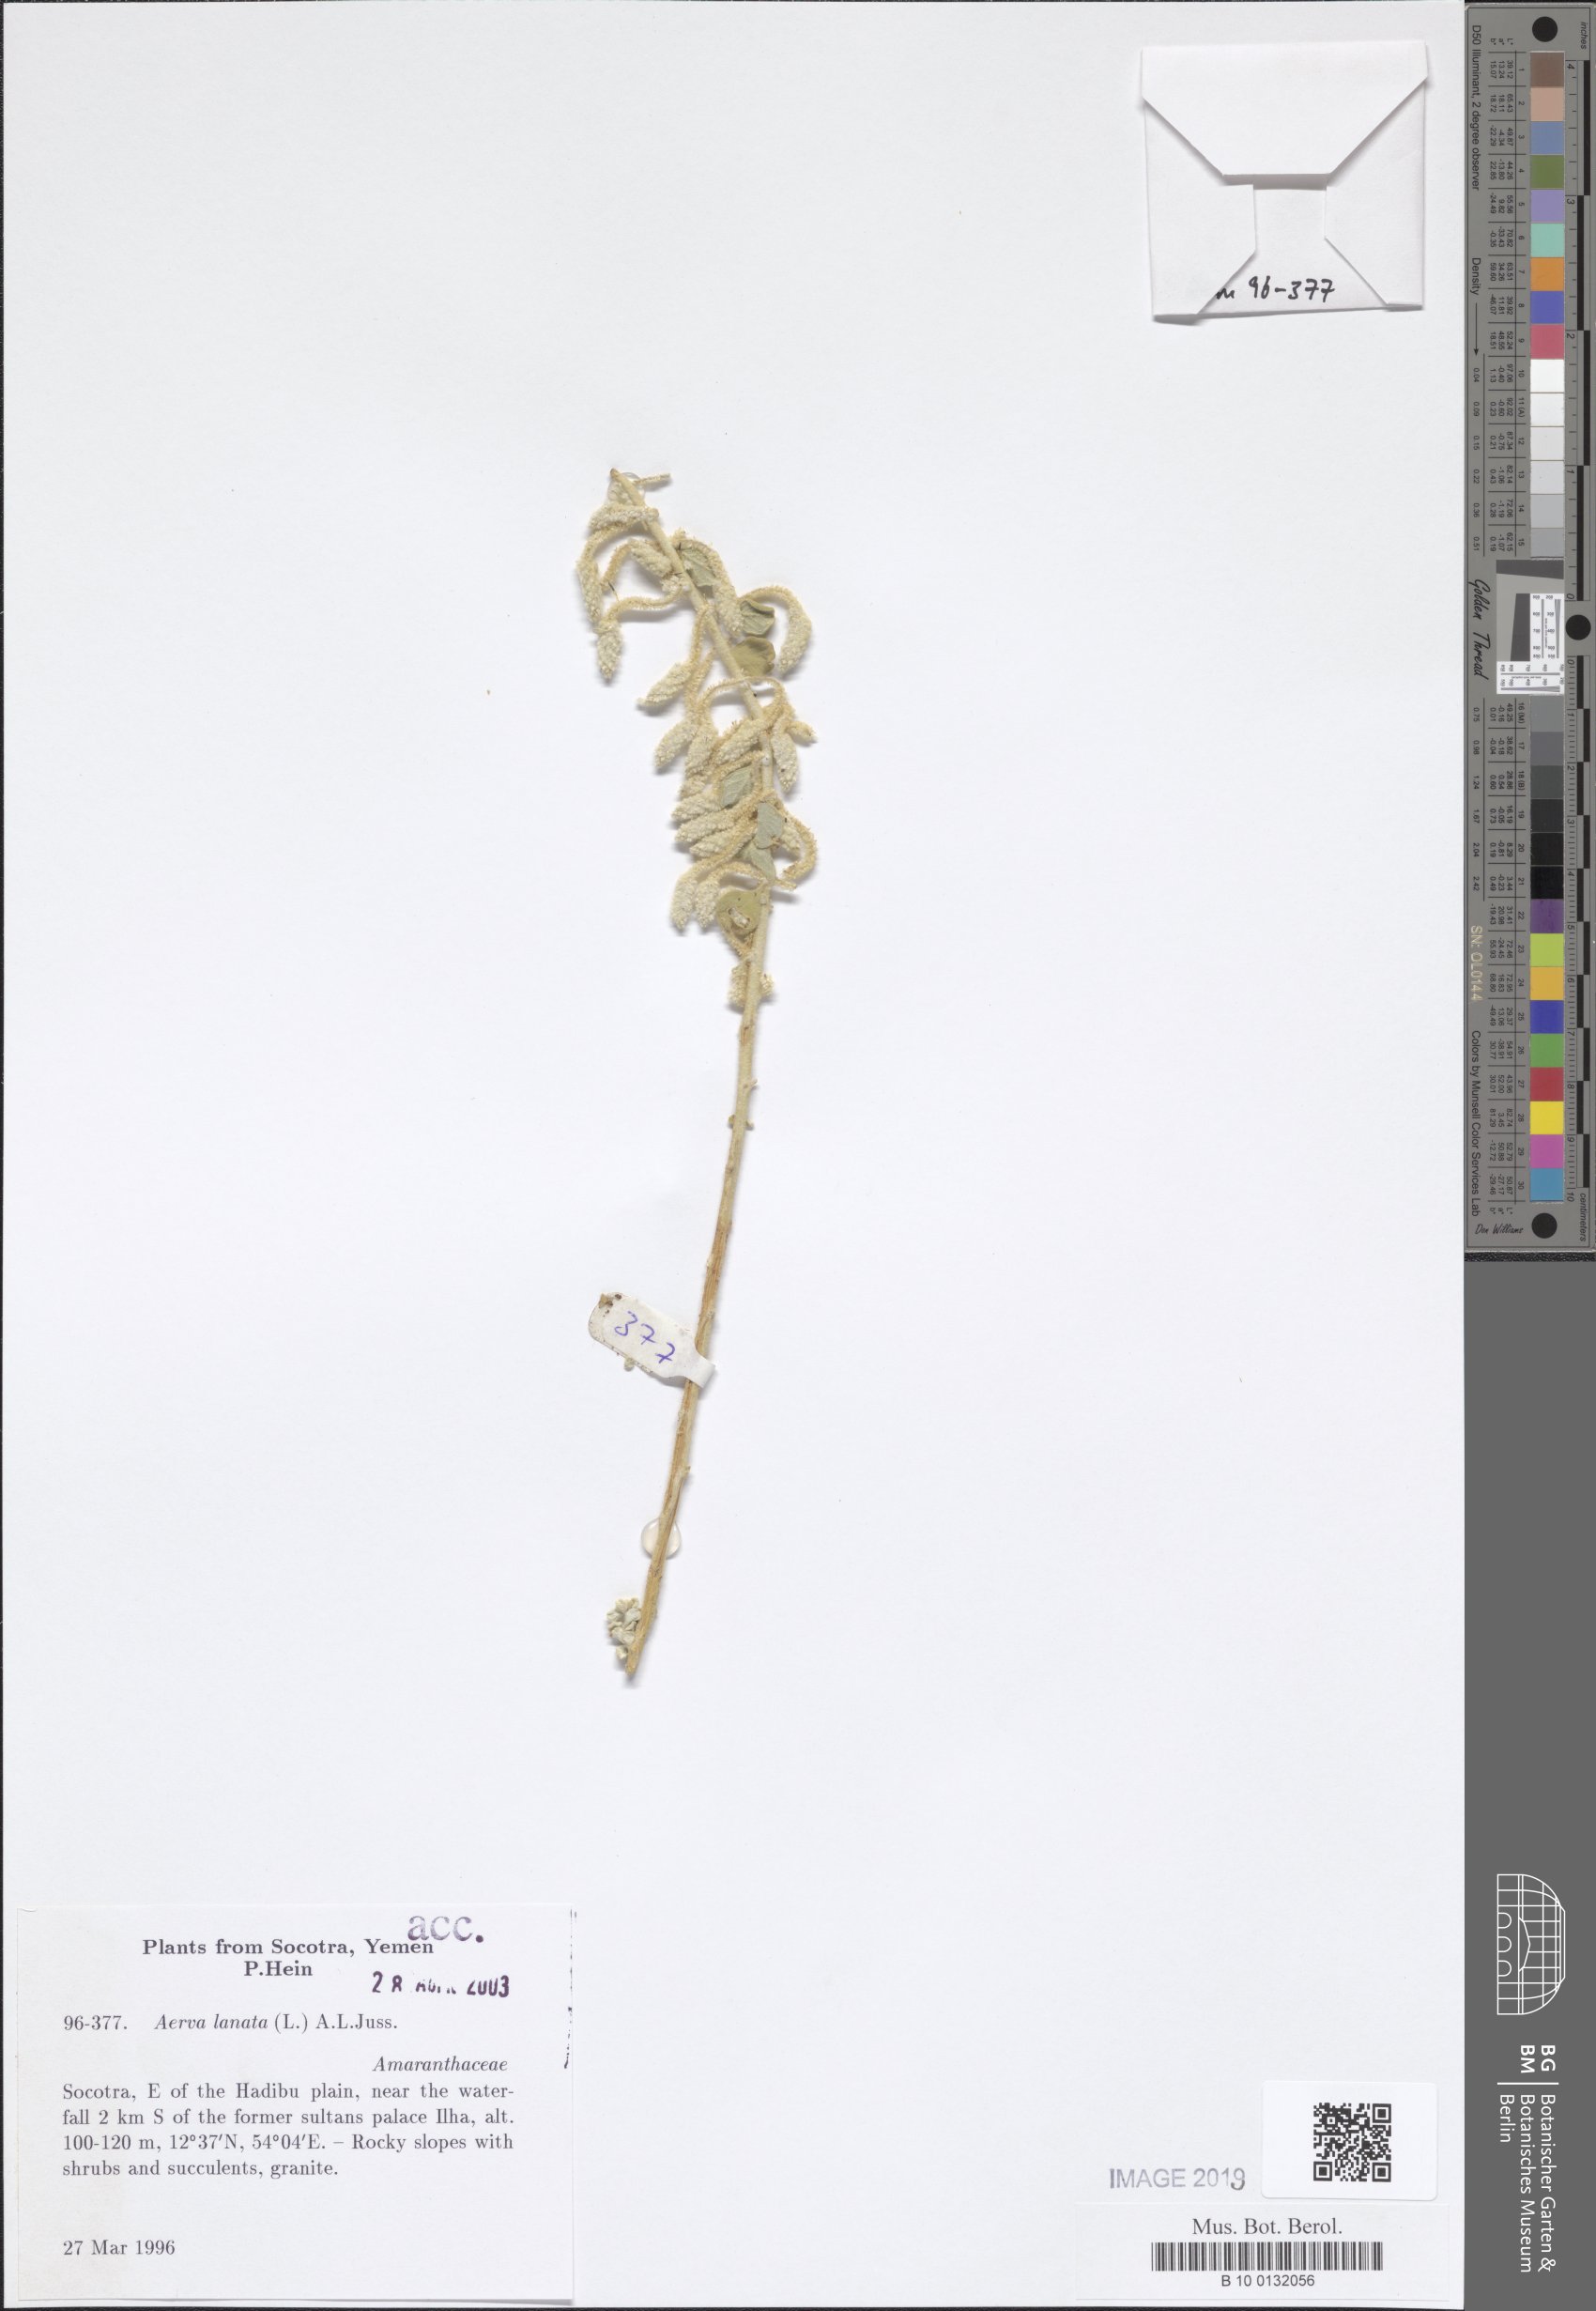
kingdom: Plantae
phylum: Tracheophyta
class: Magnoliopsida
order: Caryophyllales
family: Amaranthaceae
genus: Ouret
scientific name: Ouret lanata
